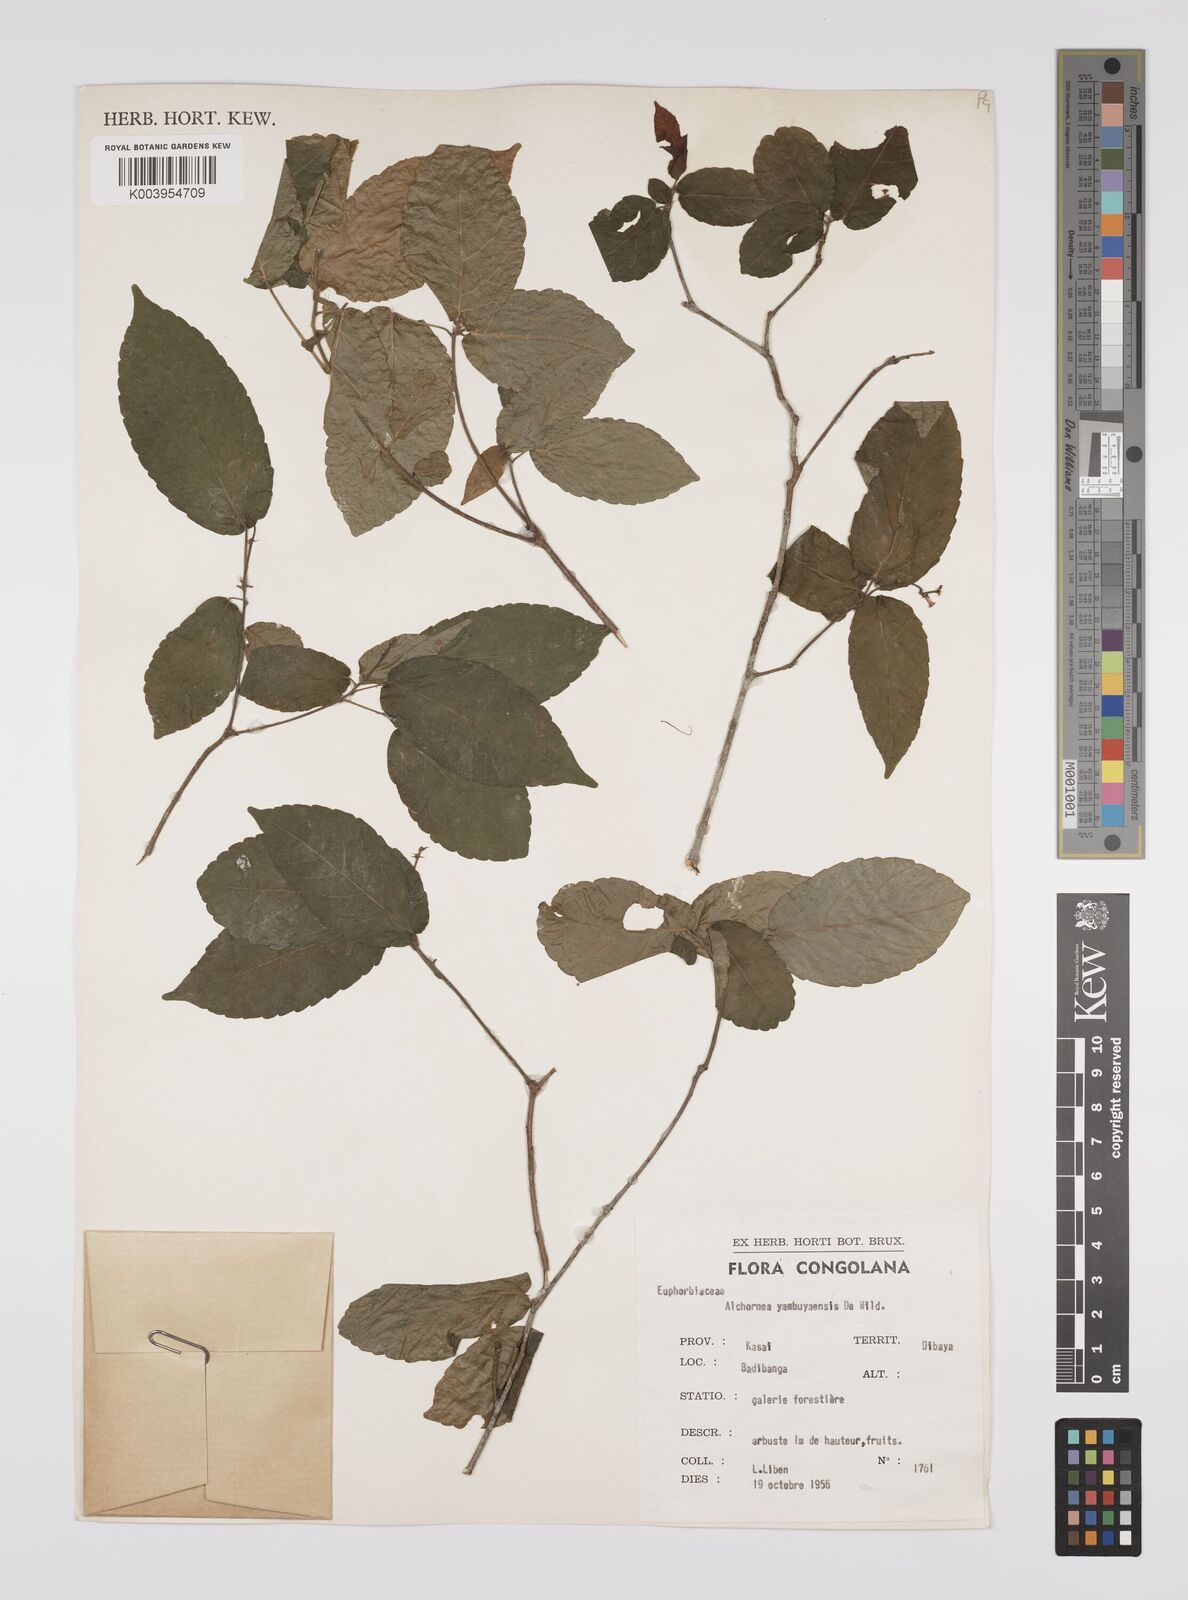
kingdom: Plantae
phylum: Tracheophyta
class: Magnoliopsida
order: Malpighiales
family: Euphorbiaceae
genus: Alchornea
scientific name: Alchornea yambuyaensis
